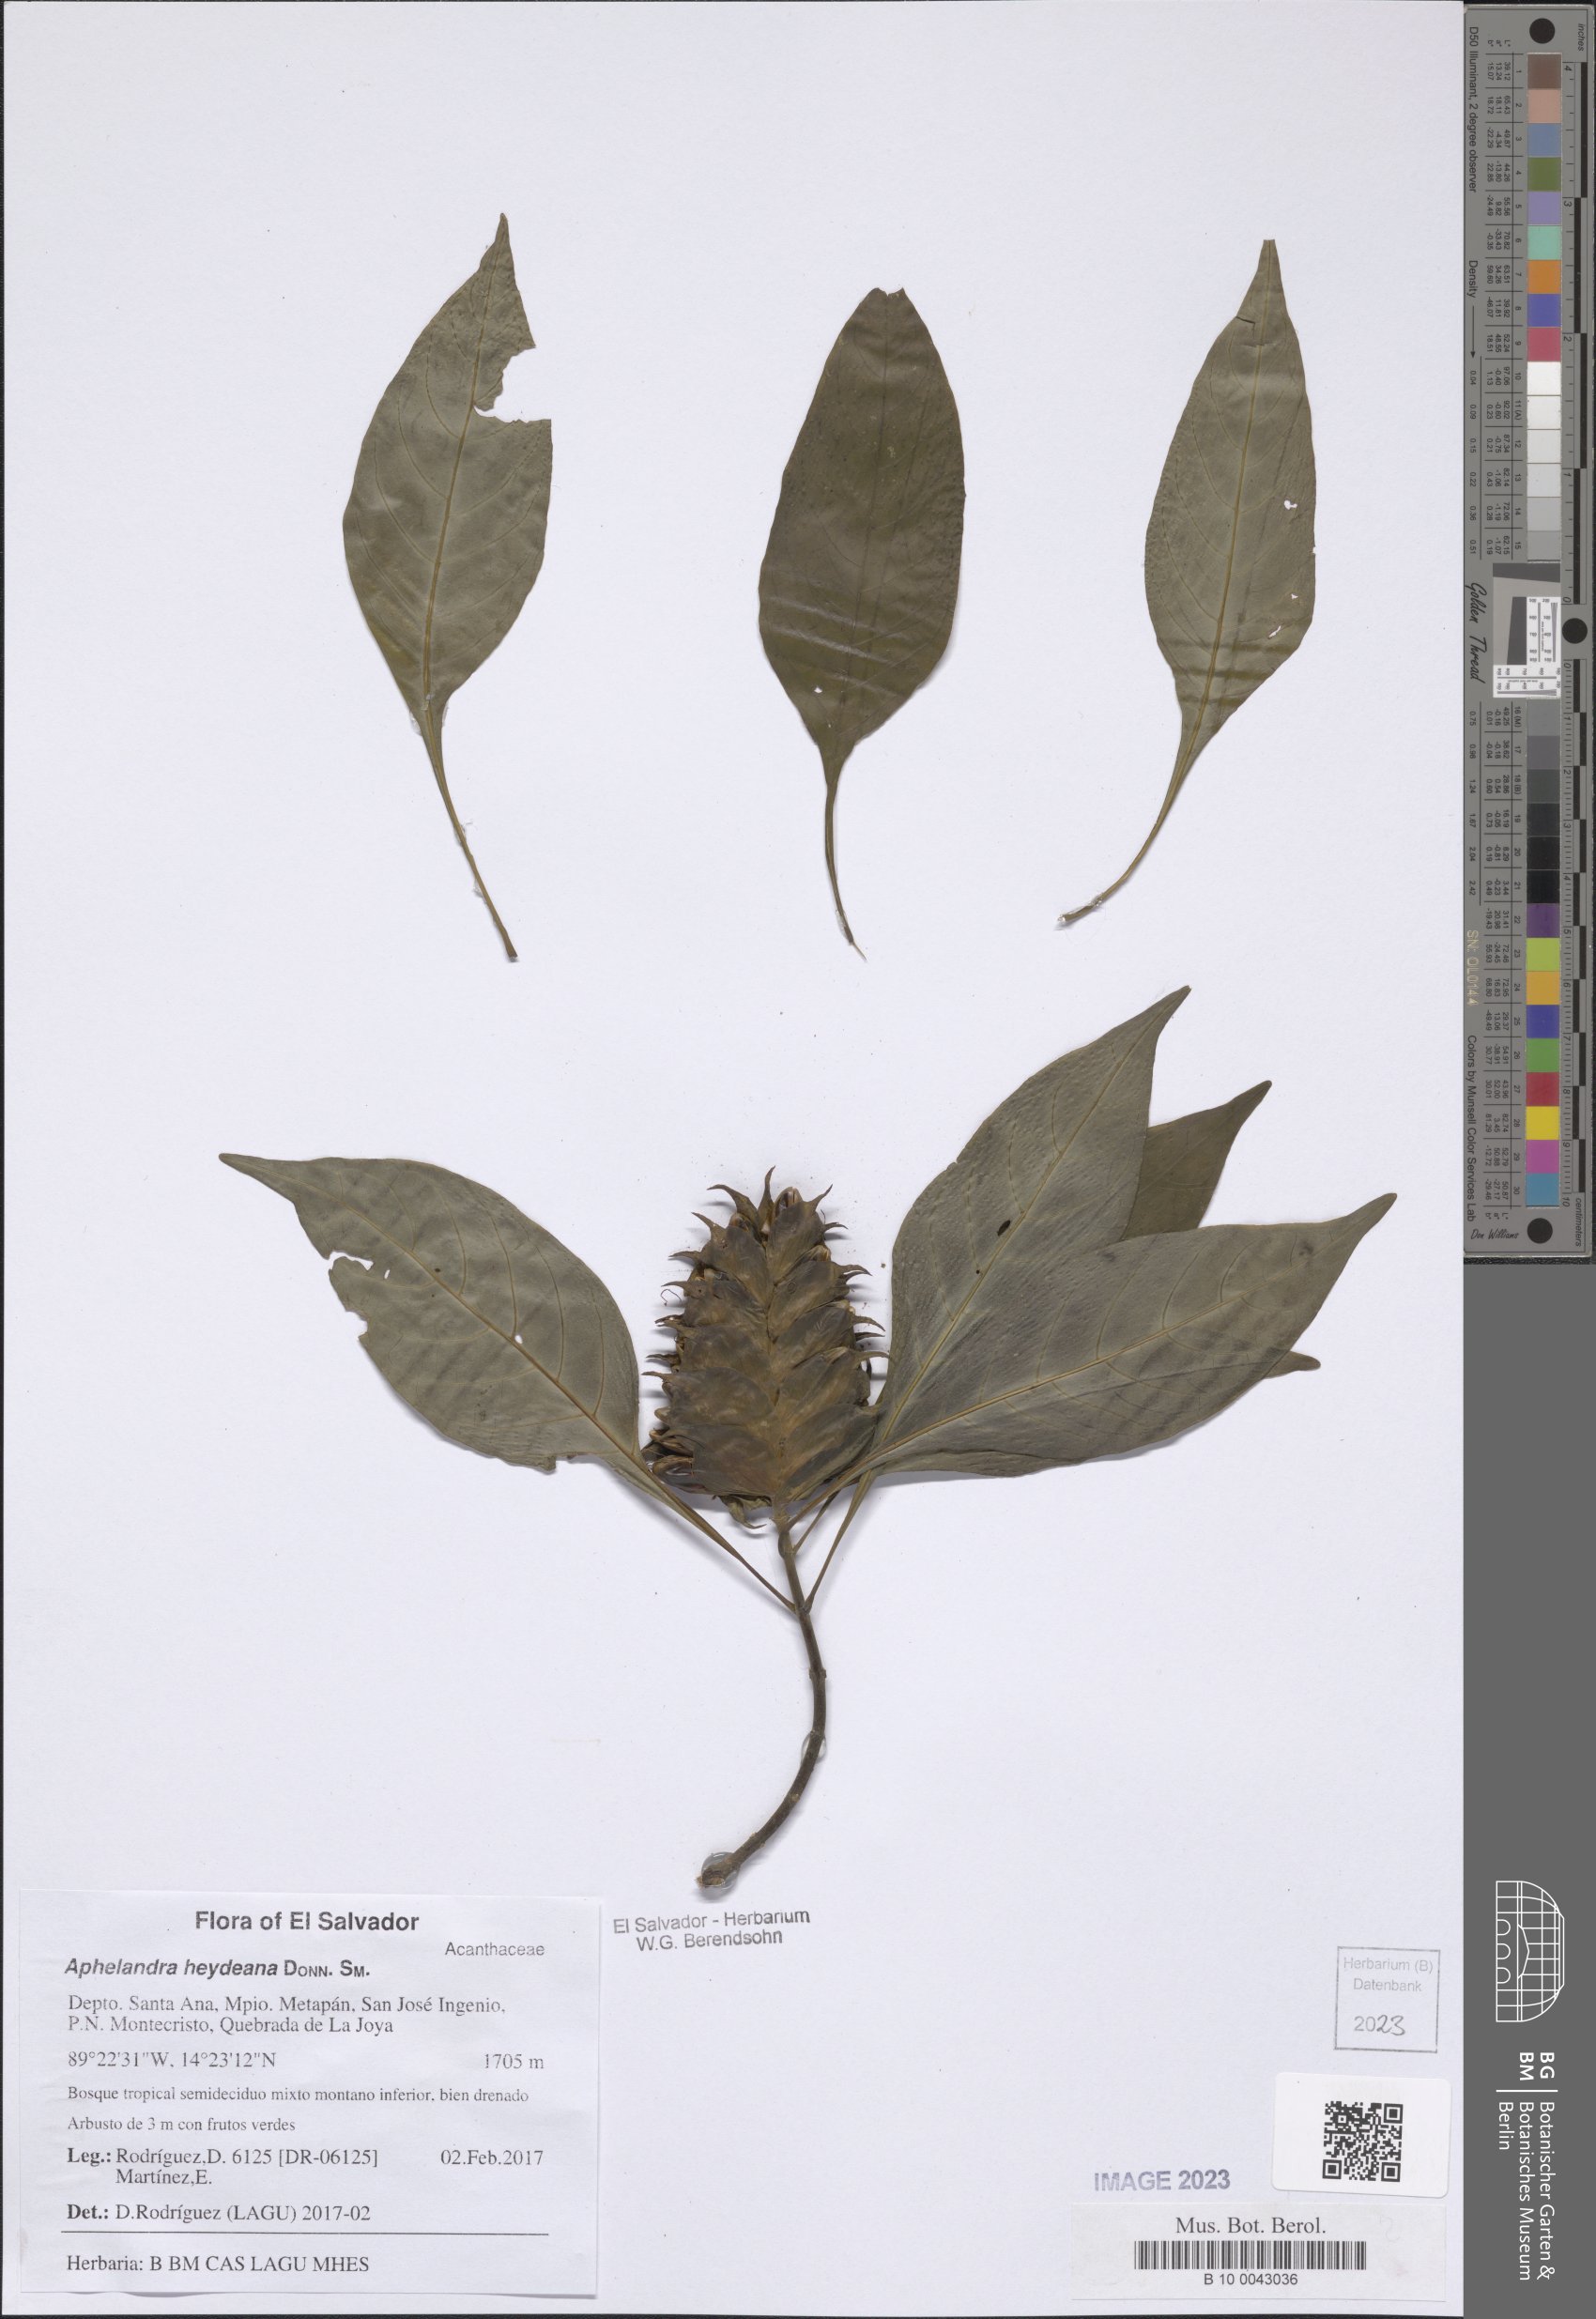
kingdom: Plantae
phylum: Tracheophyta
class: Magnoliopsida
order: Lamiales
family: Acanthaceae
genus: Aphelandra
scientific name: Aphelandra heydeana
